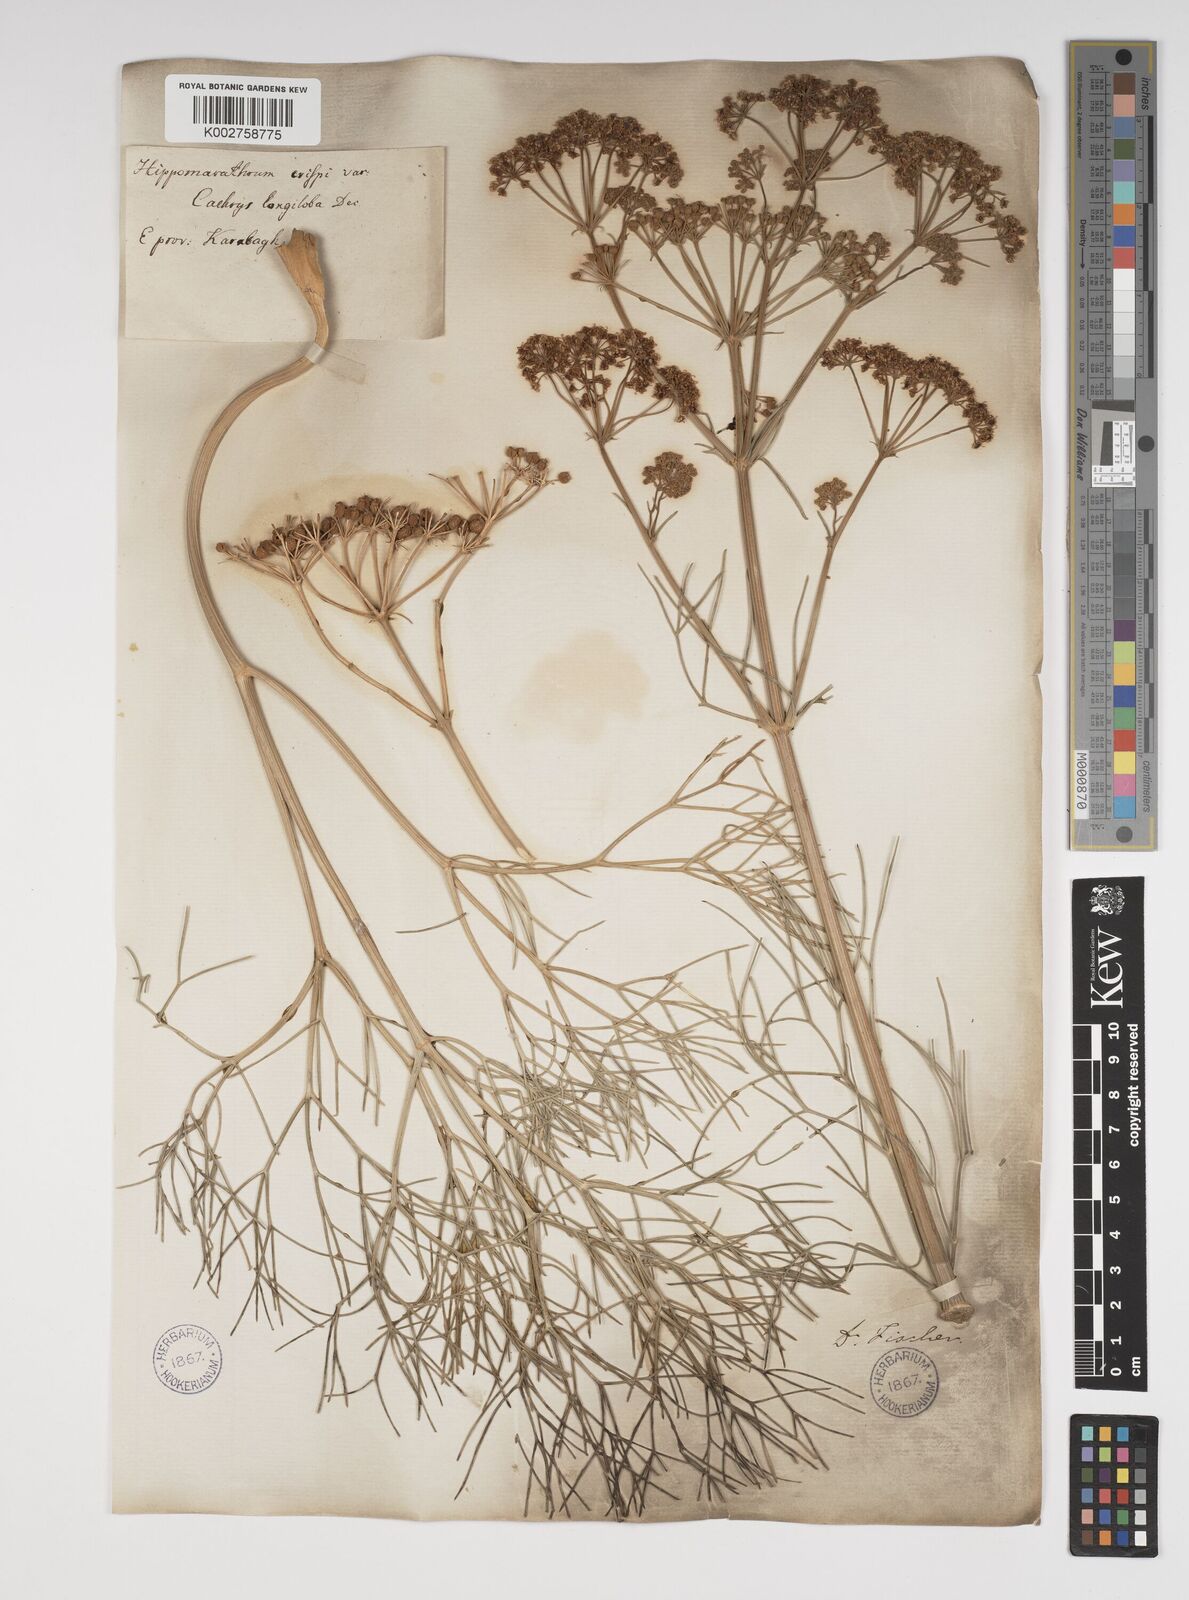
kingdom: Plantae
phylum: Tracheophyta
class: Magnoliopsida
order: Apiales
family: Apiaceae
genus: Bilacunaria
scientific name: Bilacunaria microcarpa
